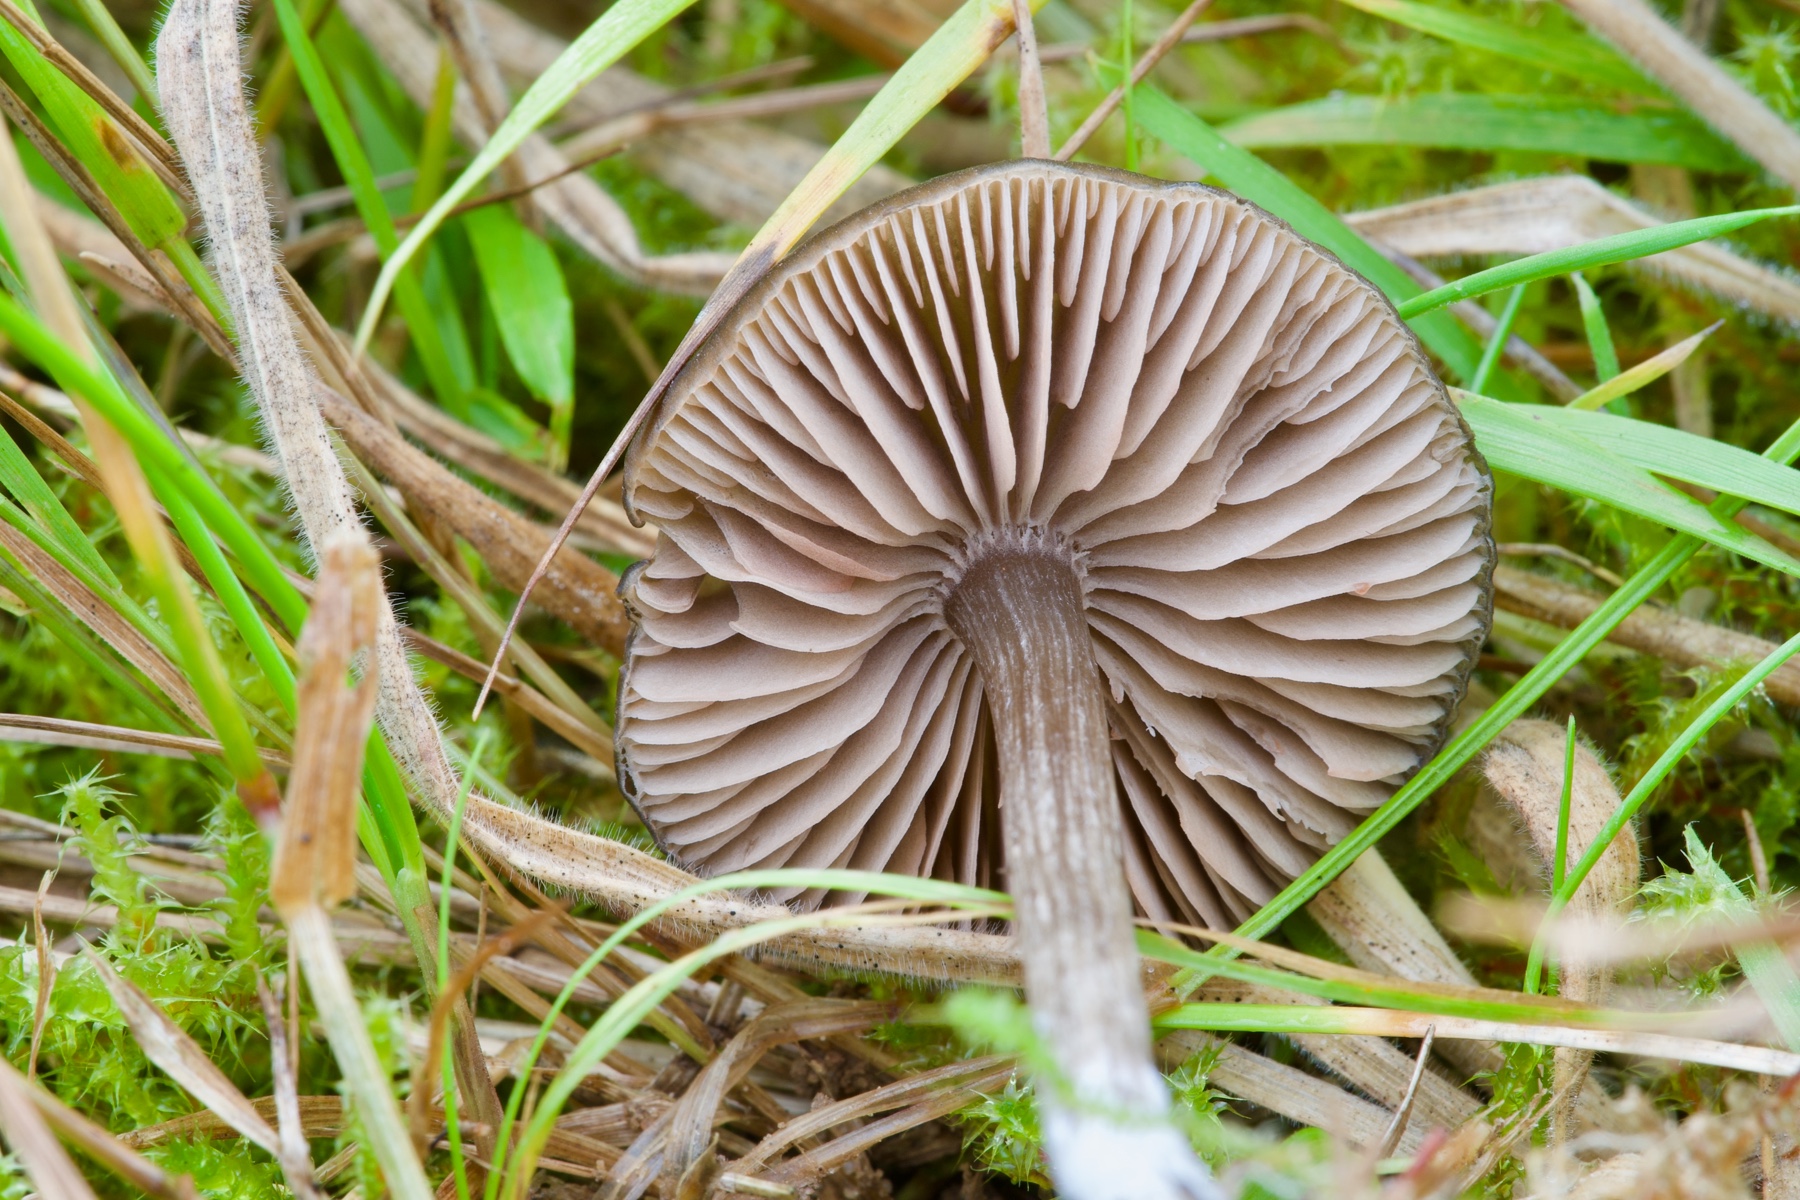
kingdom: Fungi
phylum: Basidiomycota
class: Agaricomycetes
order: Agaricales
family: Entolomataceae
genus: Entoloma
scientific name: Entoloma
